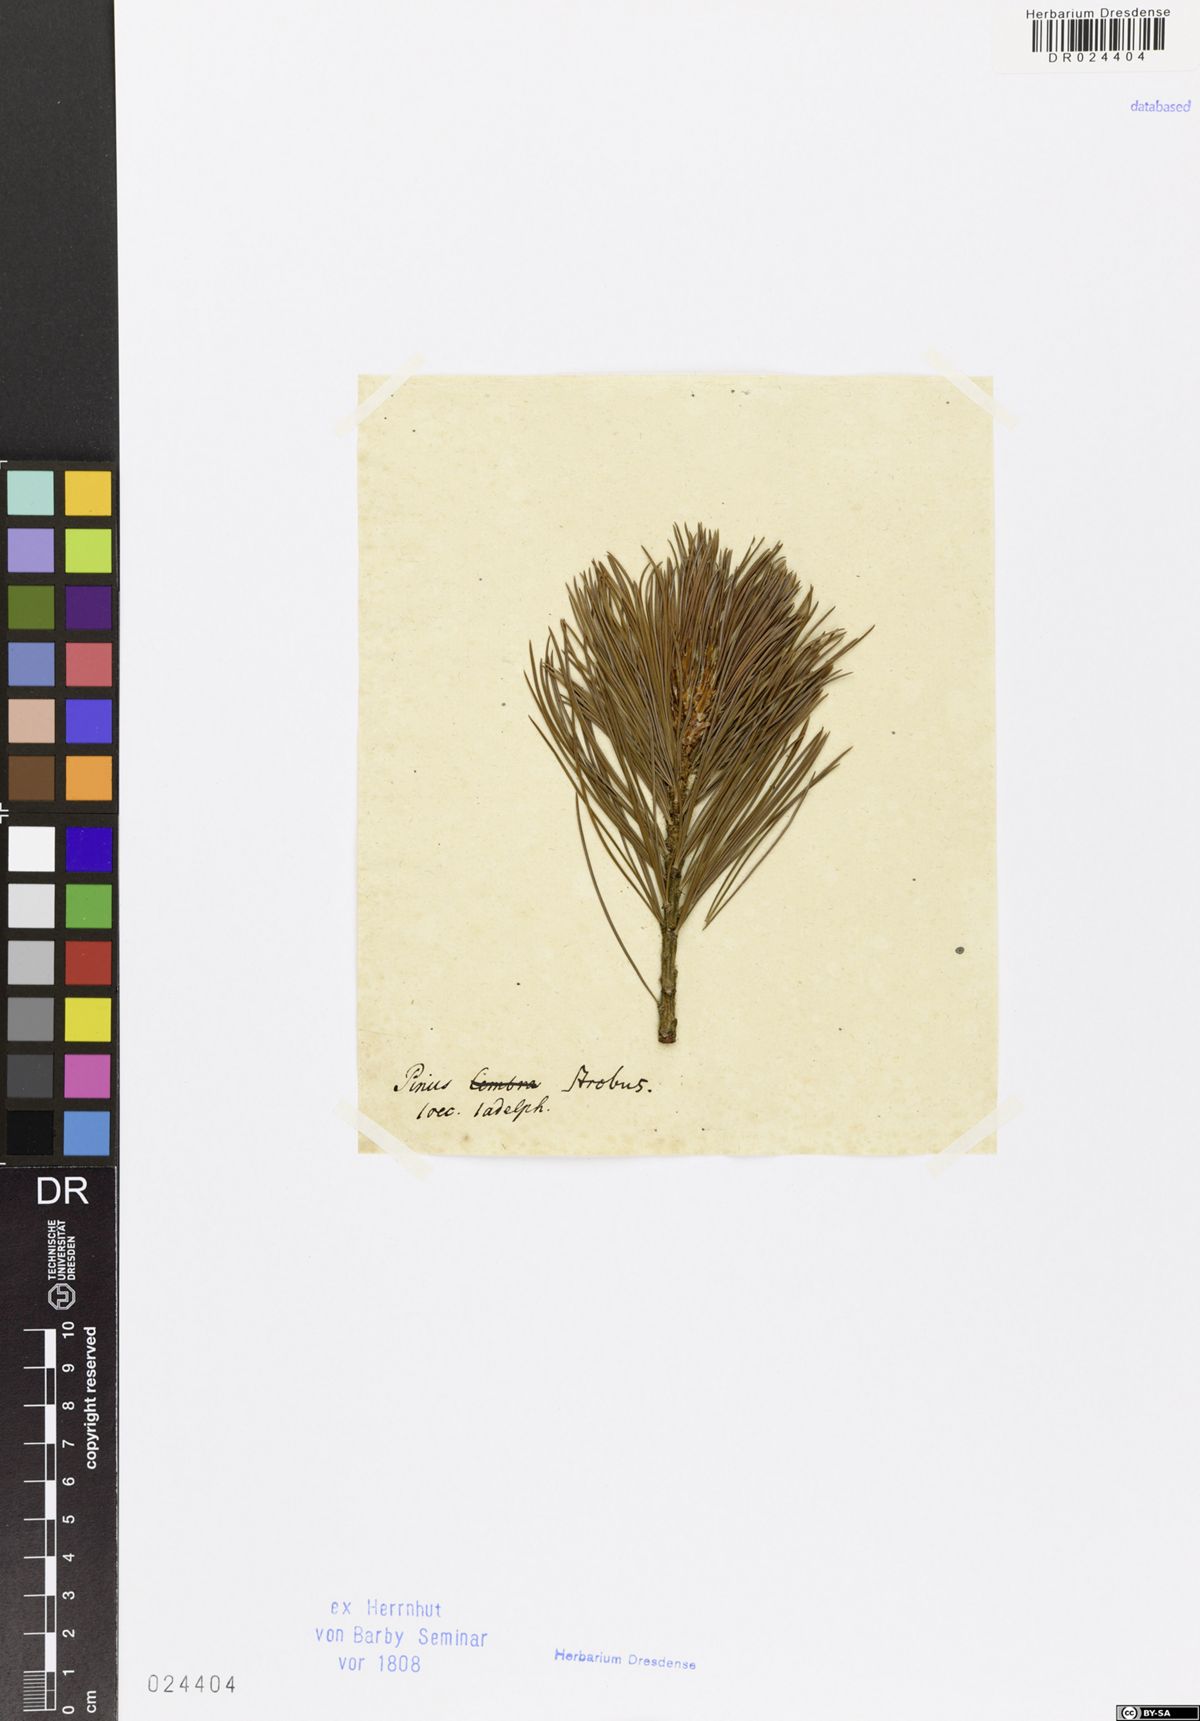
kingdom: Plantae
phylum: Tracheophyta
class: Pinopsida
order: Pinales
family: Pinaceae
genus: Pinus
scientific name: Pinus strobus
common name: Weymouth pine
